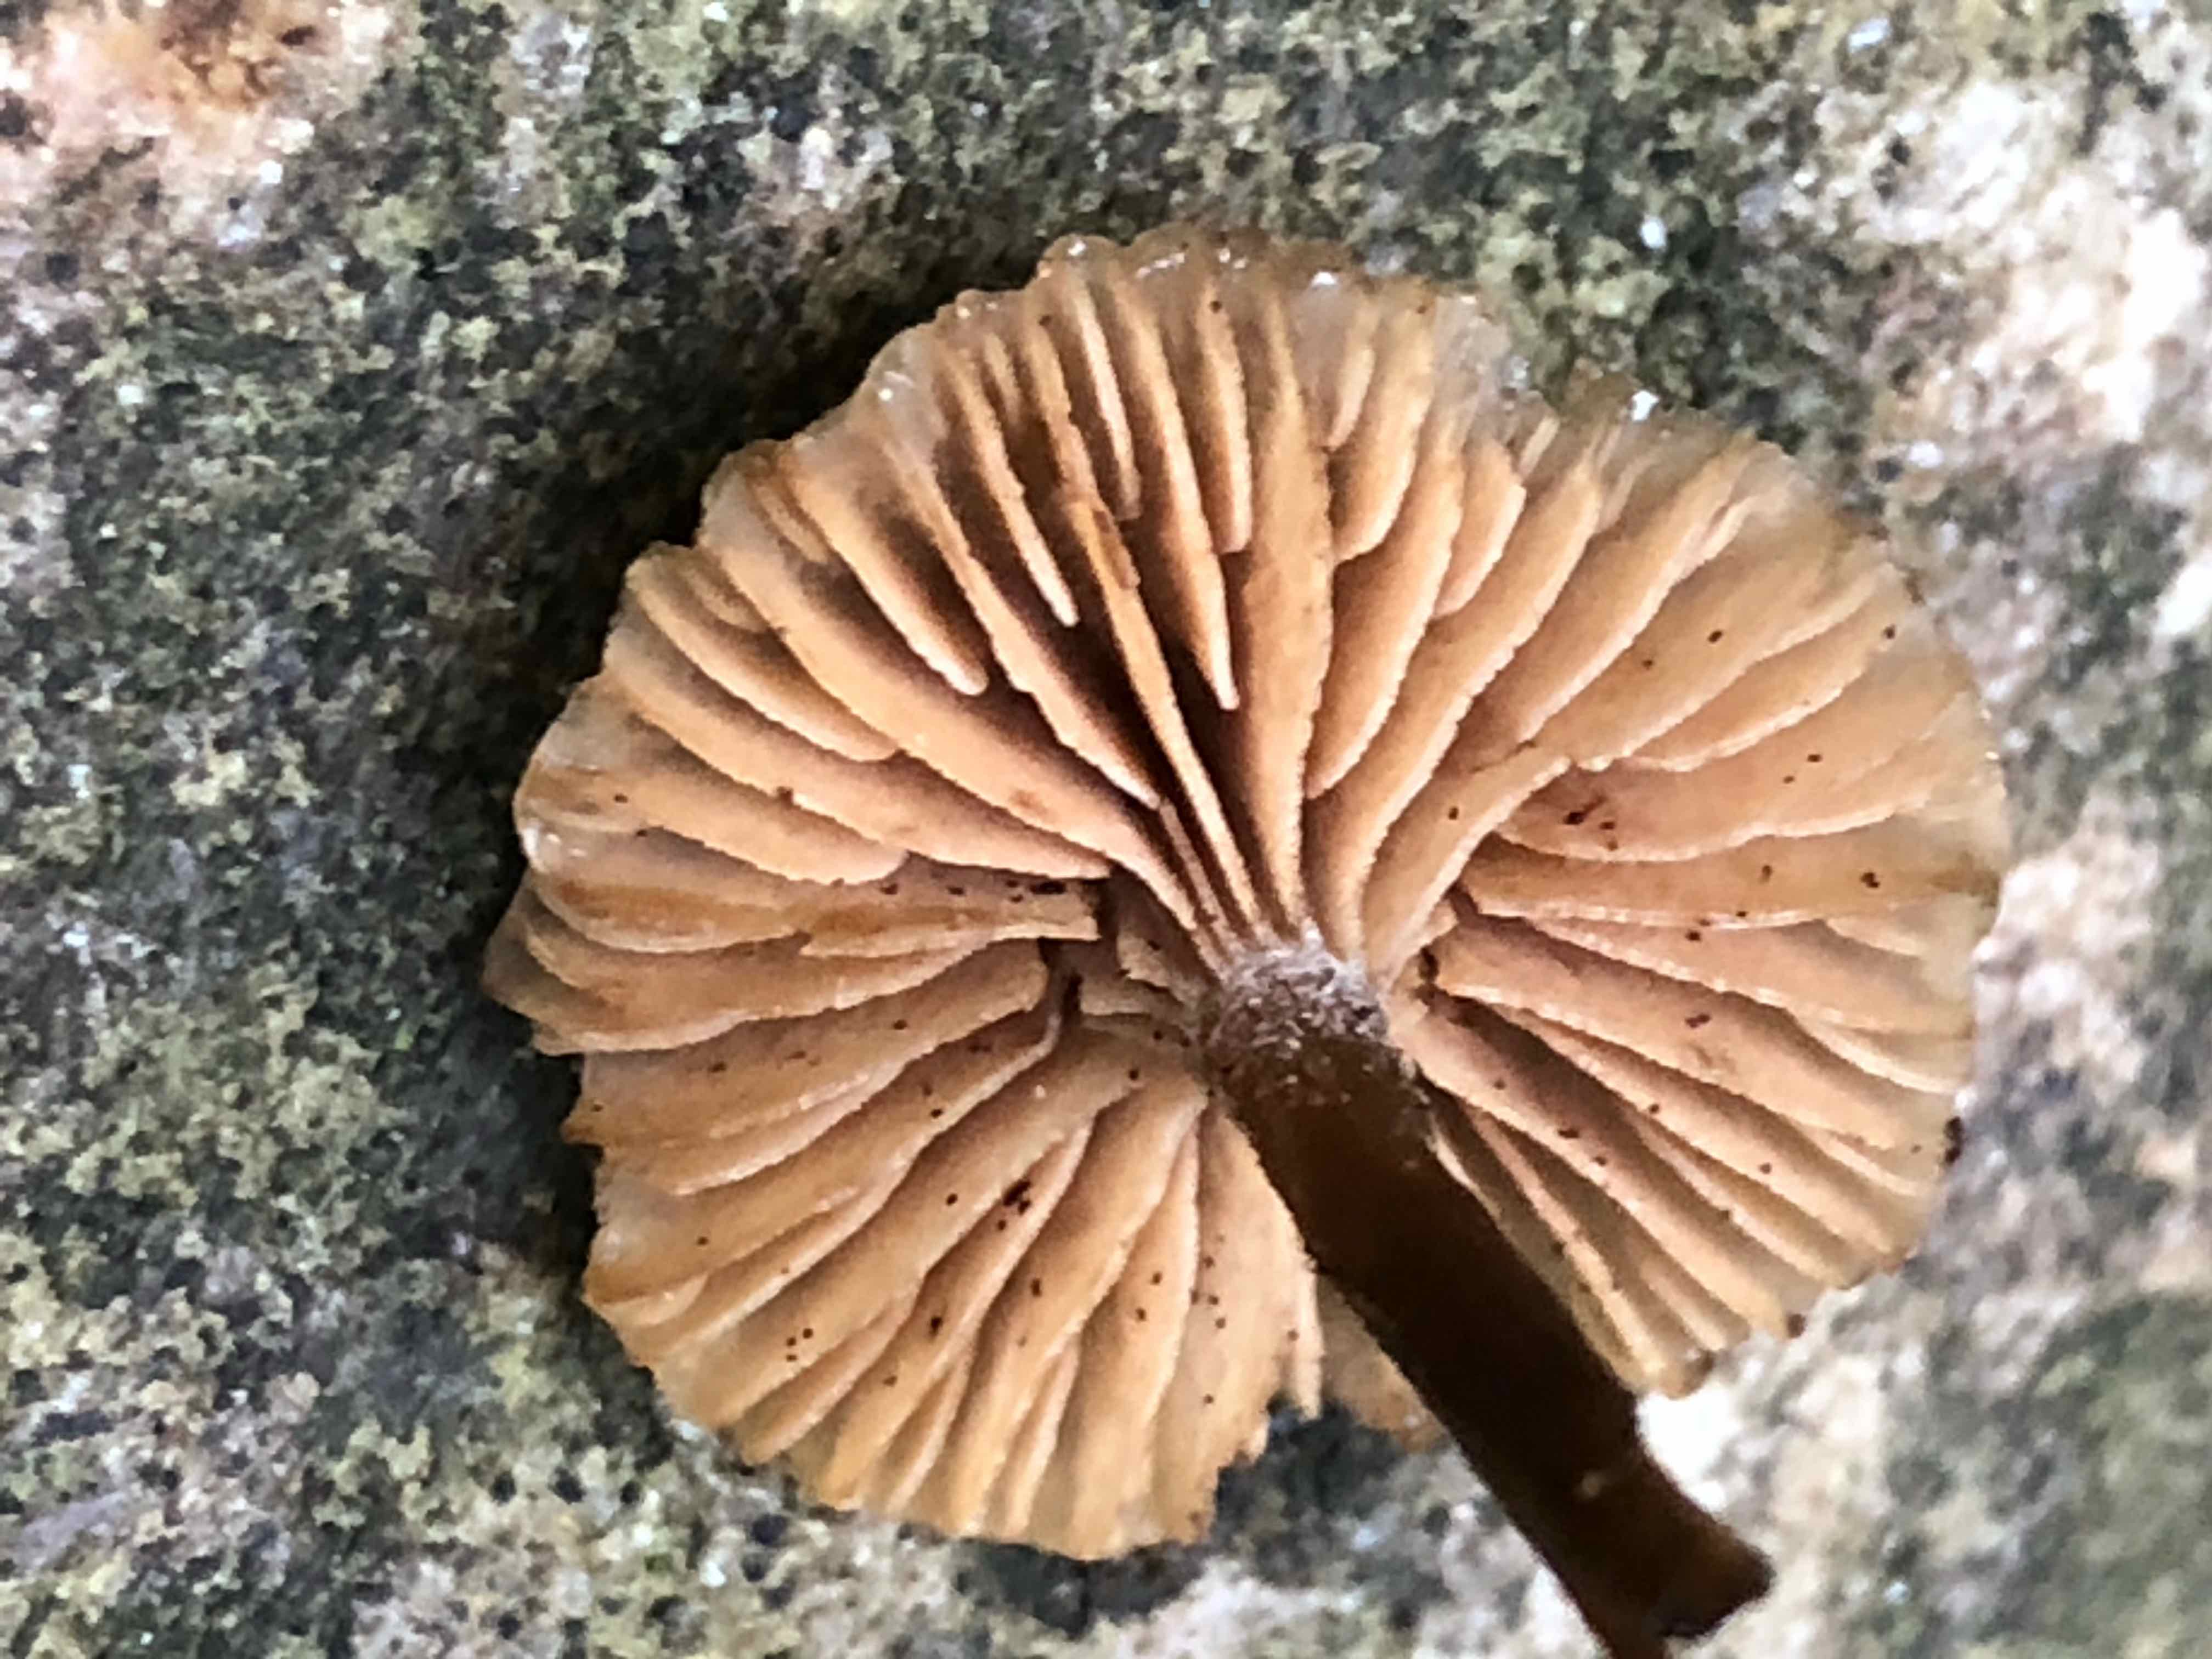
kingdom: Fungi
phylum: Basidiomycota
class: Agaricomycetes
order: Agaricales
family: Hymenogastraceae
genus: Naucoria
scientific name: Naucoria scolecina
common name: mørk elle-knaphat
